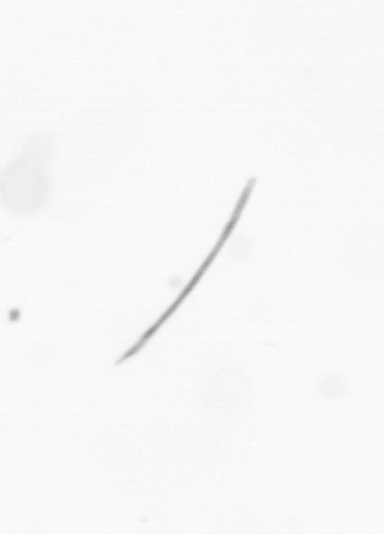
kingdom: Chromista
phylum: Ochrophyta
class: Bacillariophyceae
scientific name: Bacillariophyceae
